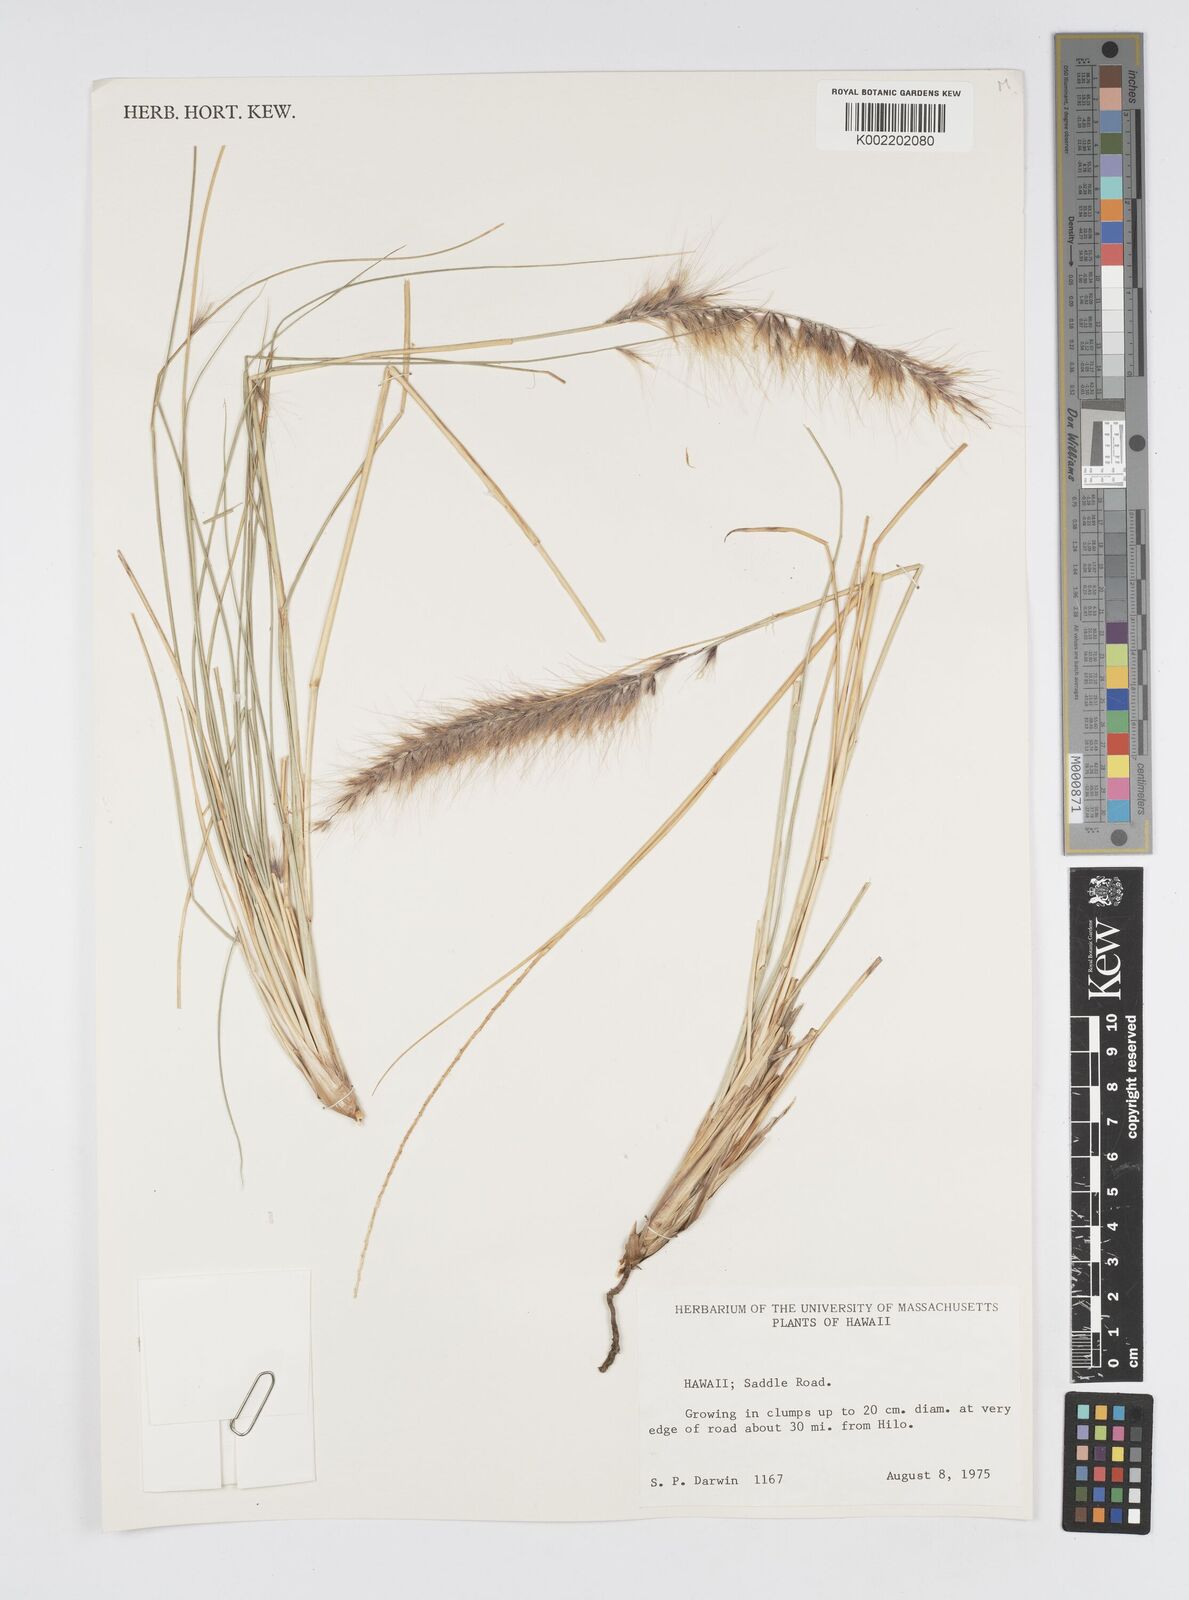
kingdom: Plantae
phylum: Tracheophyta
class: Liliopsida
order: Poales
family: Poaceae
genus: Cenchrus
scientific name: Cenchrus setaceus
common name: Crimson fountaingrass
